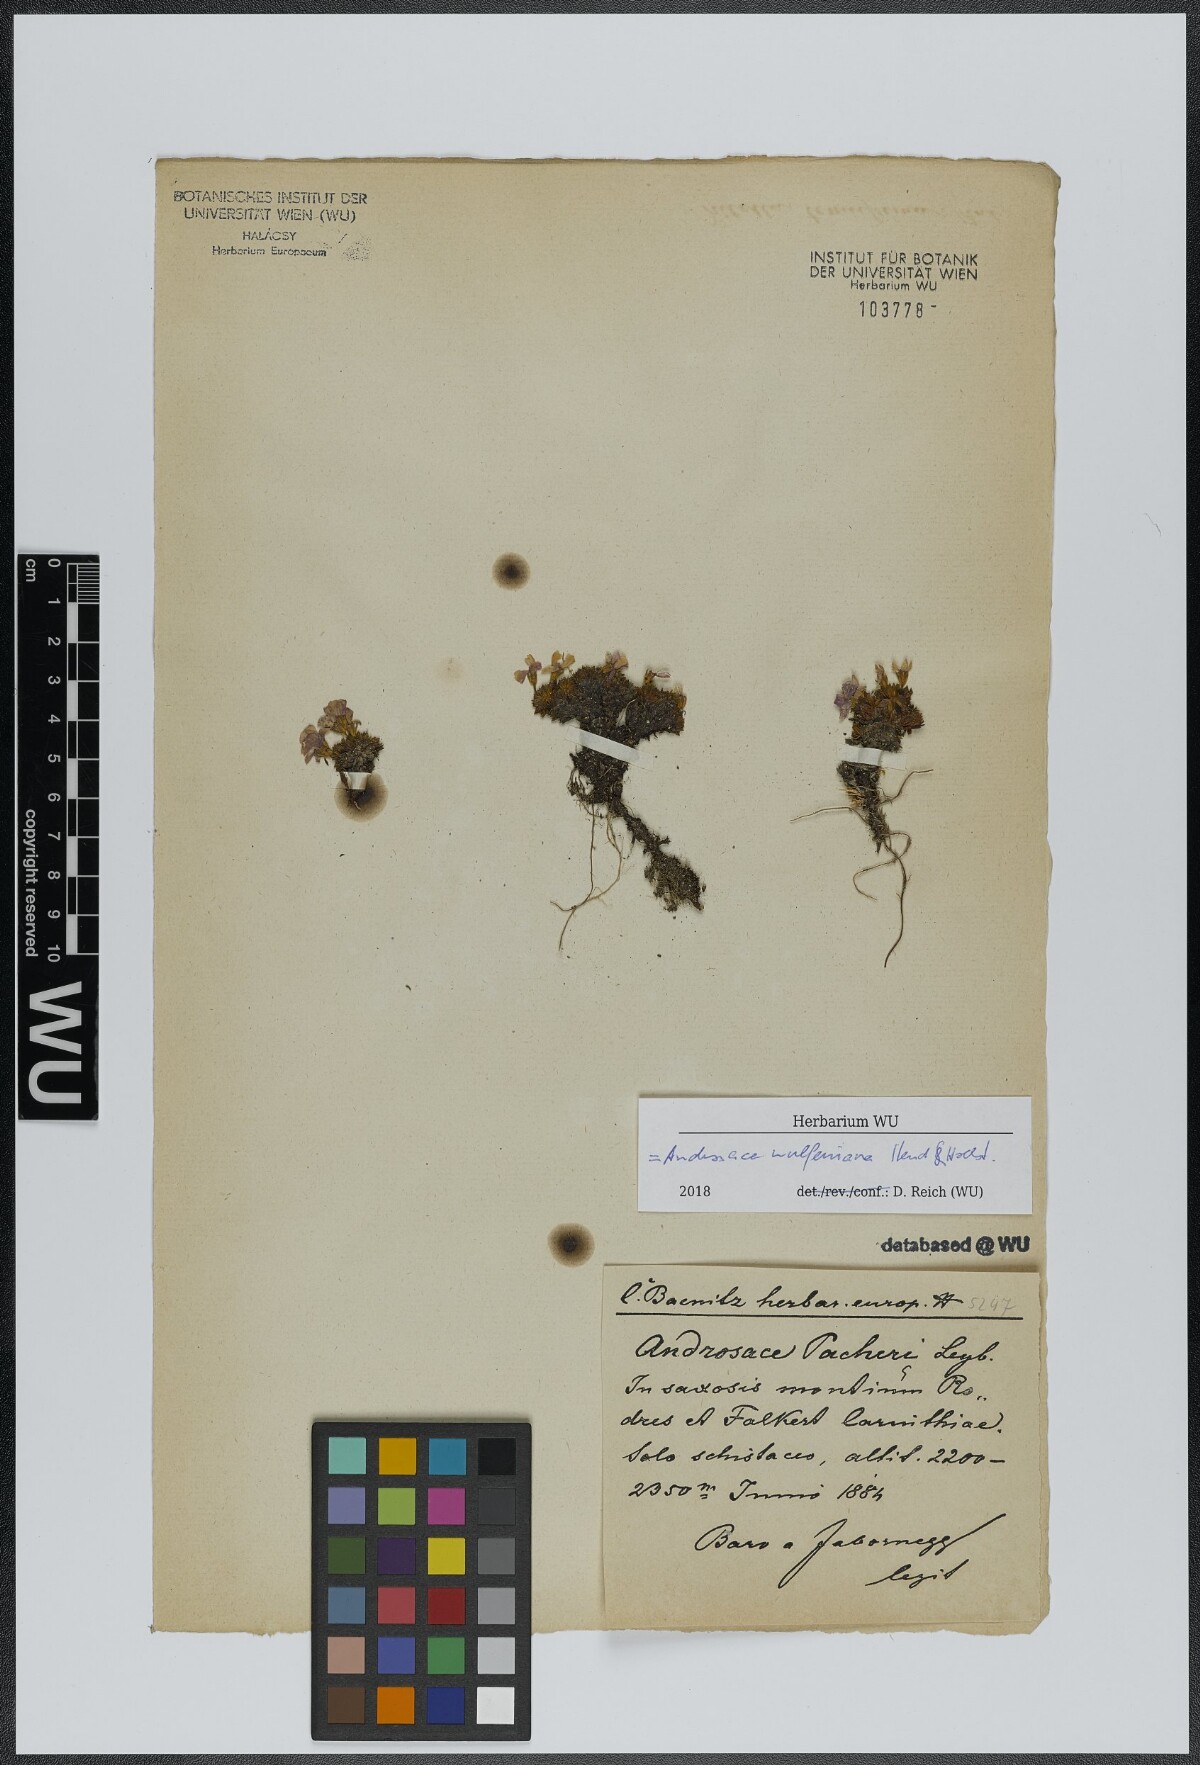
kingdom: Plantae
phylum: Tracheophyta
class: Magnoliopsida
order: Ericales
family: Primulaceae
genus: Androsace
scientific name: Androsace wulfeniana
